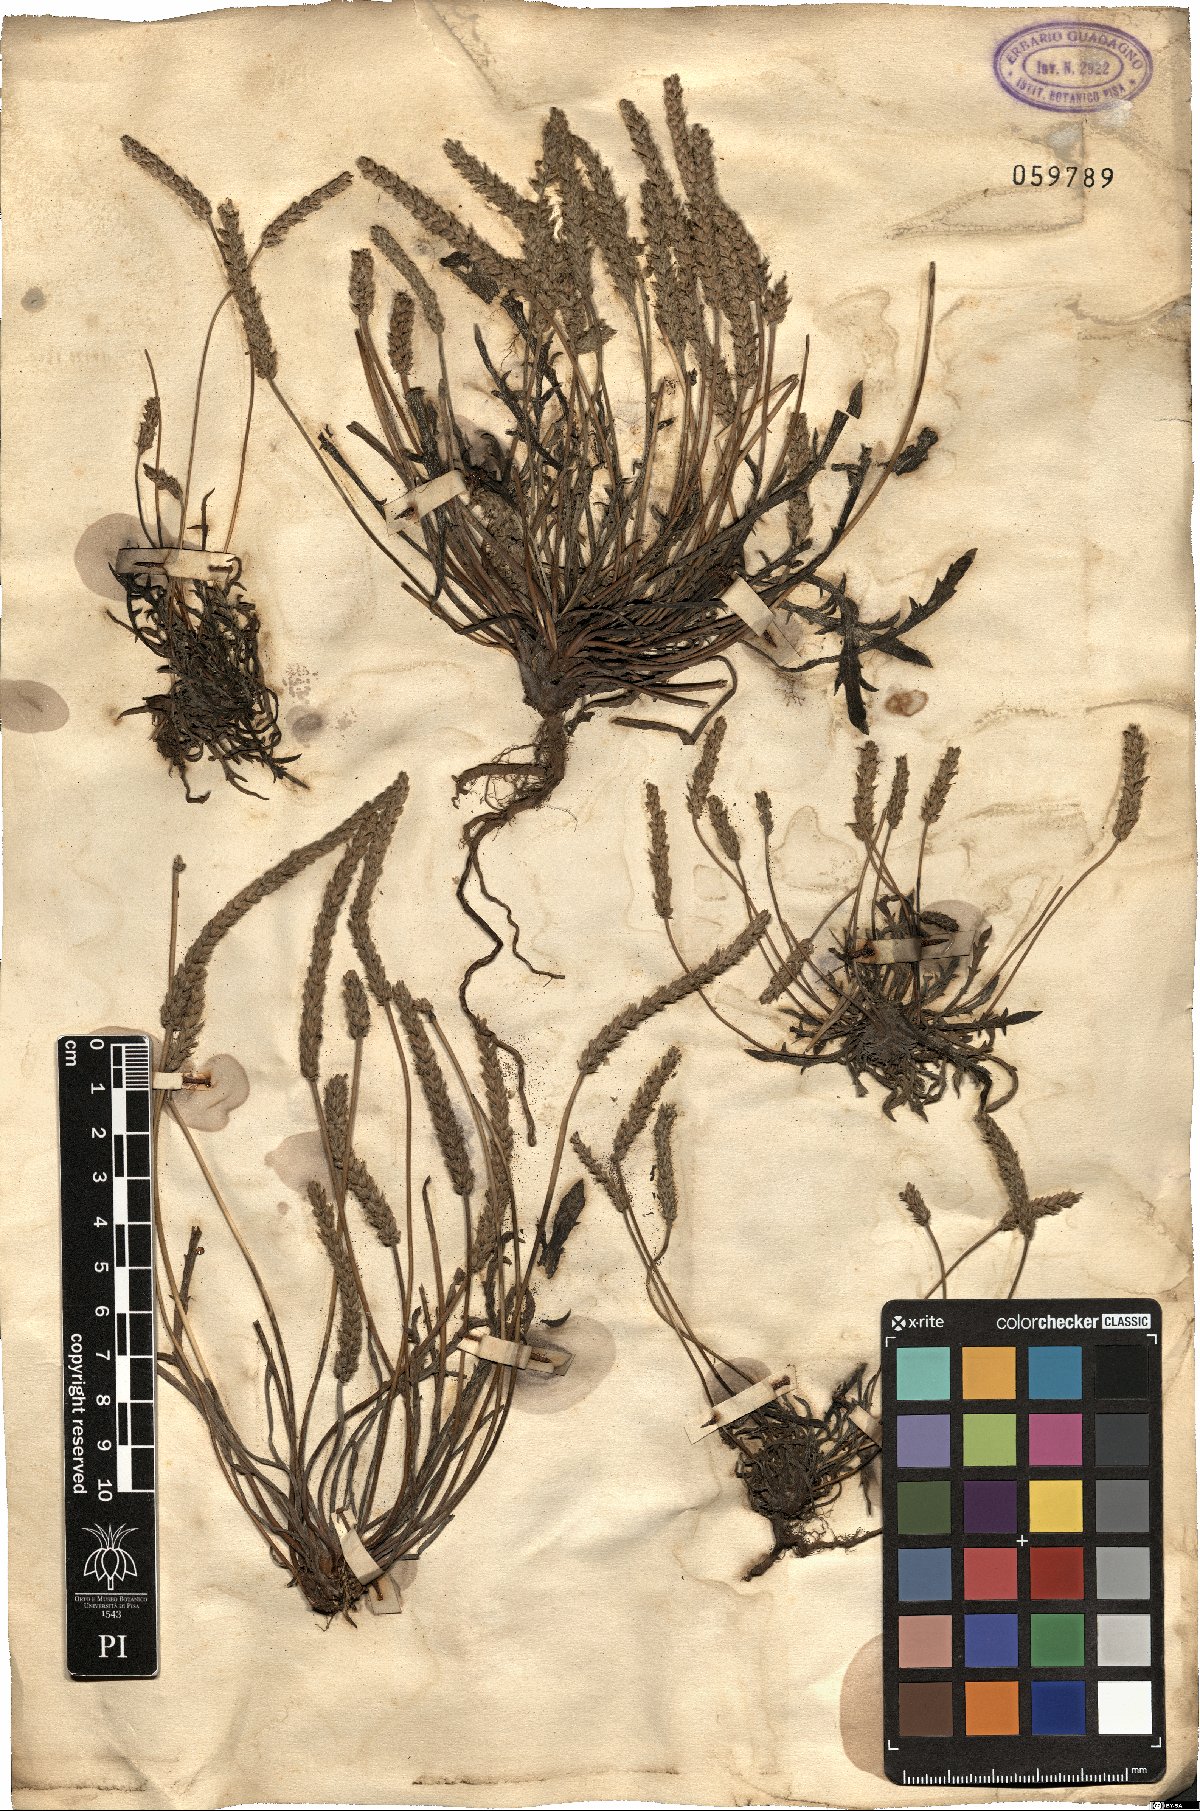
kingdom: Plantae
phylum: Tracheophyta
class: Magnoliopsida
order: Lamiales
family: Plantaginaceae
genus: Plantago
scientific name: Plantago coronopus
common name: Buck's-horn plantain
